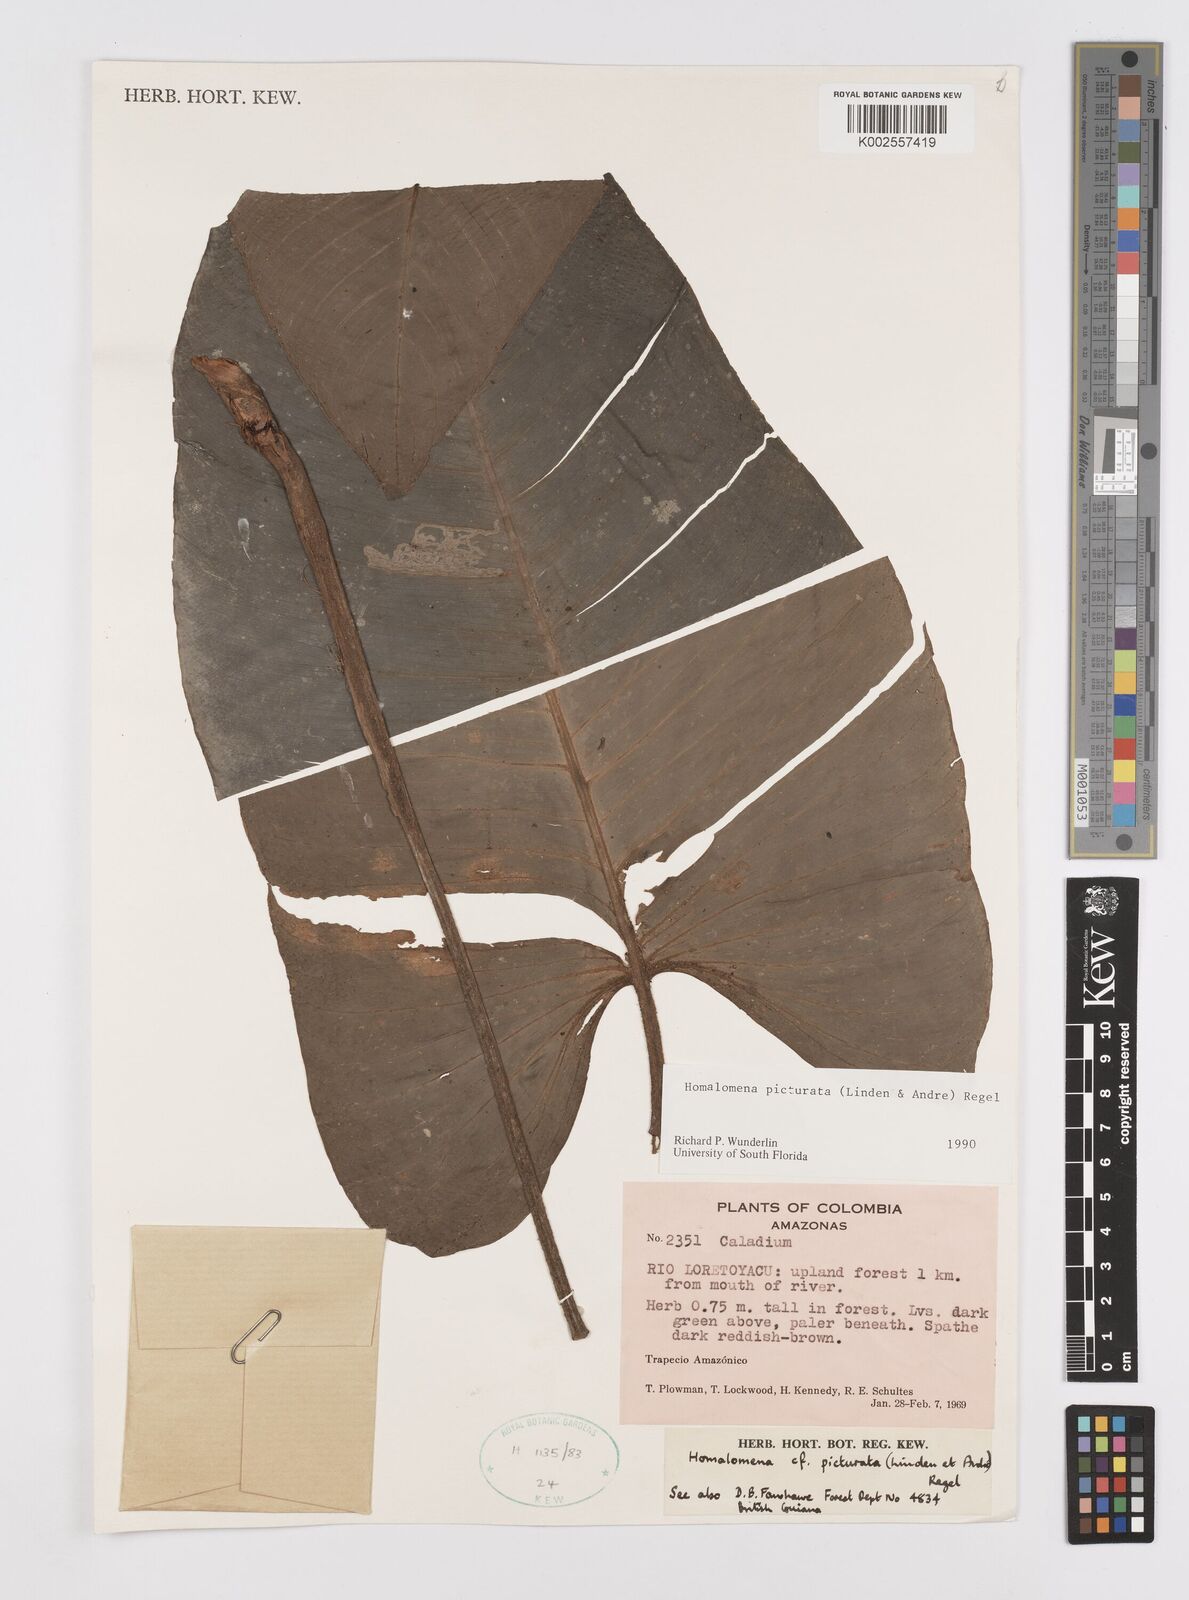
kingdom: Plantae
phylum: Tracheophyta
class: Liliopsida
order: Alismatales
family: Araceae
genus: Adelonema
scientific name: Adelonema picturatum
